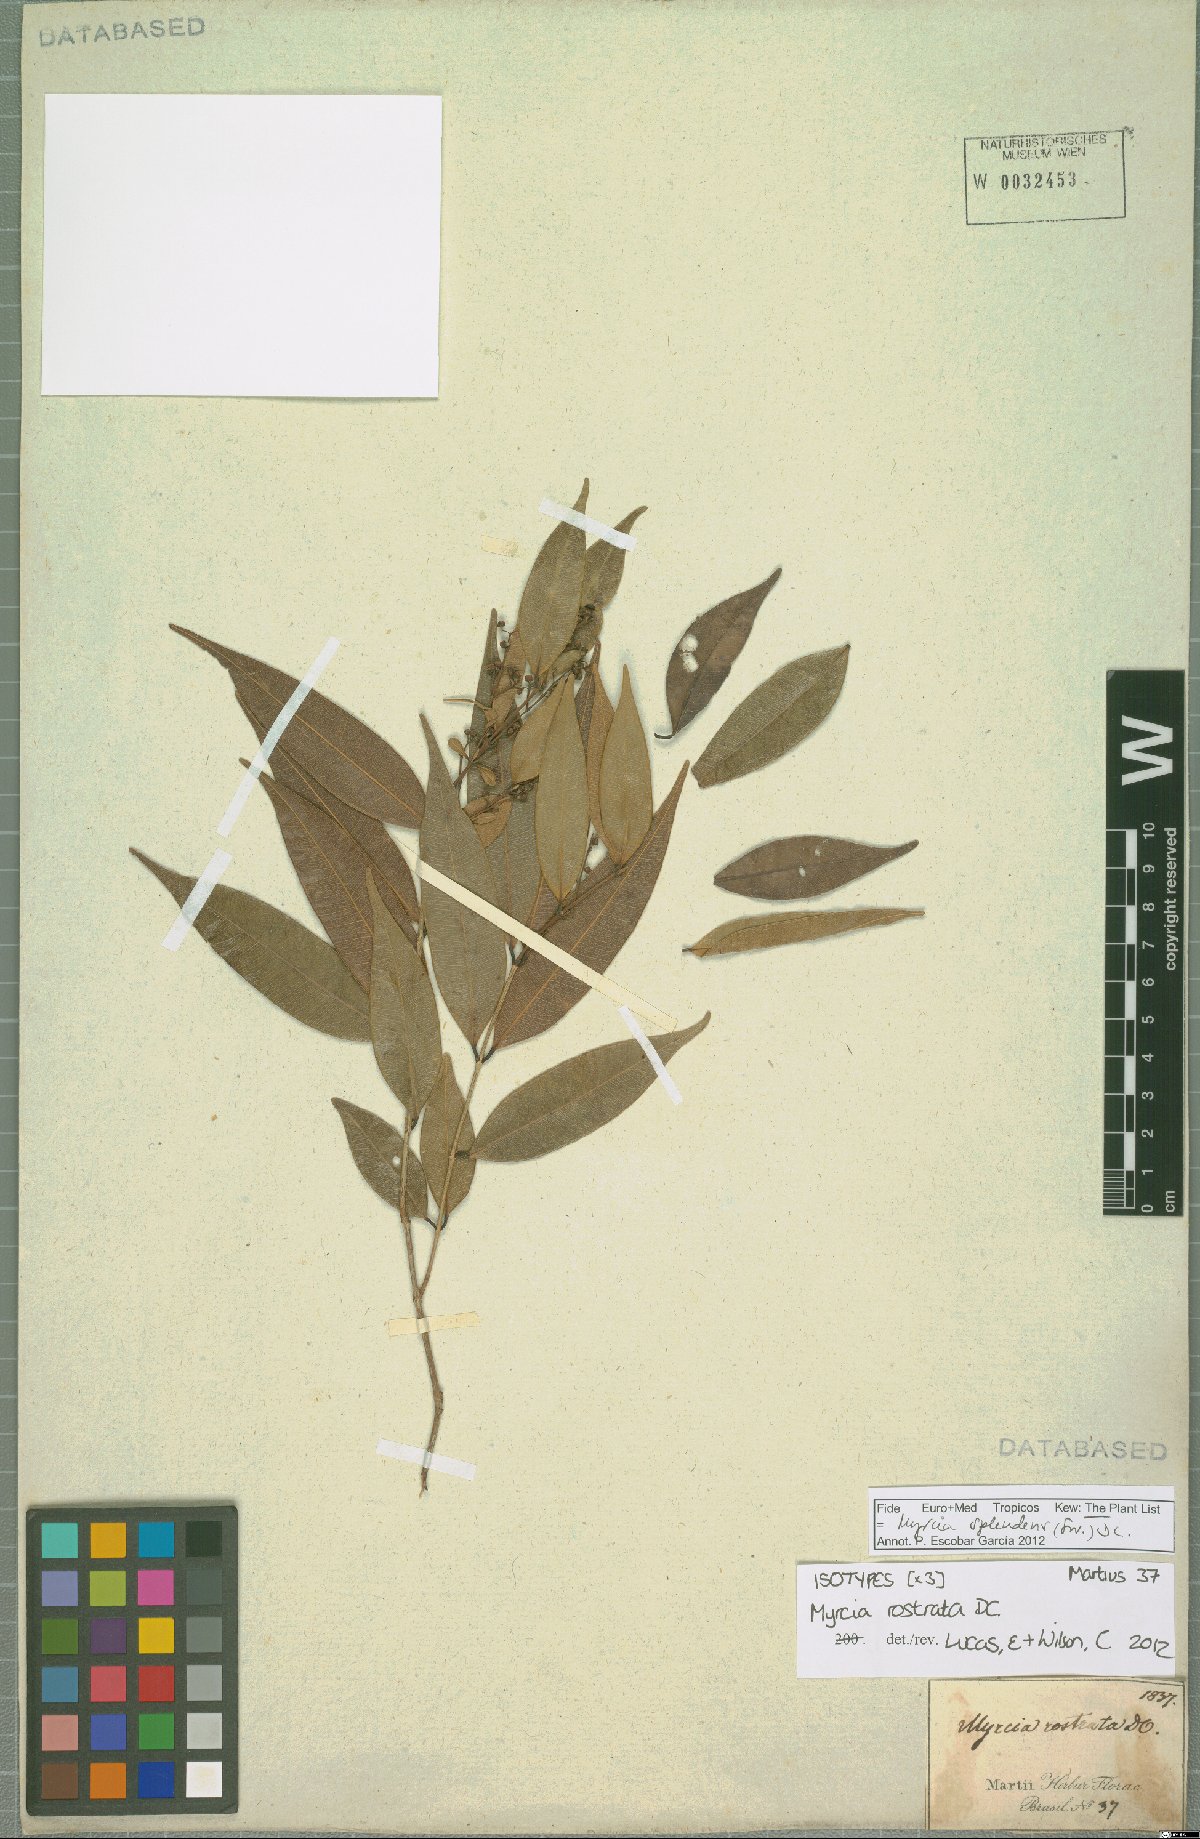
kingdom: Plantae
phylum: Tracheophyta
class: Magnoliopsida
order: Myrtales
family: Myrtaceae
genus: Myrcia
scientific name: Myrcia splendens
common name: Surinam cherry
